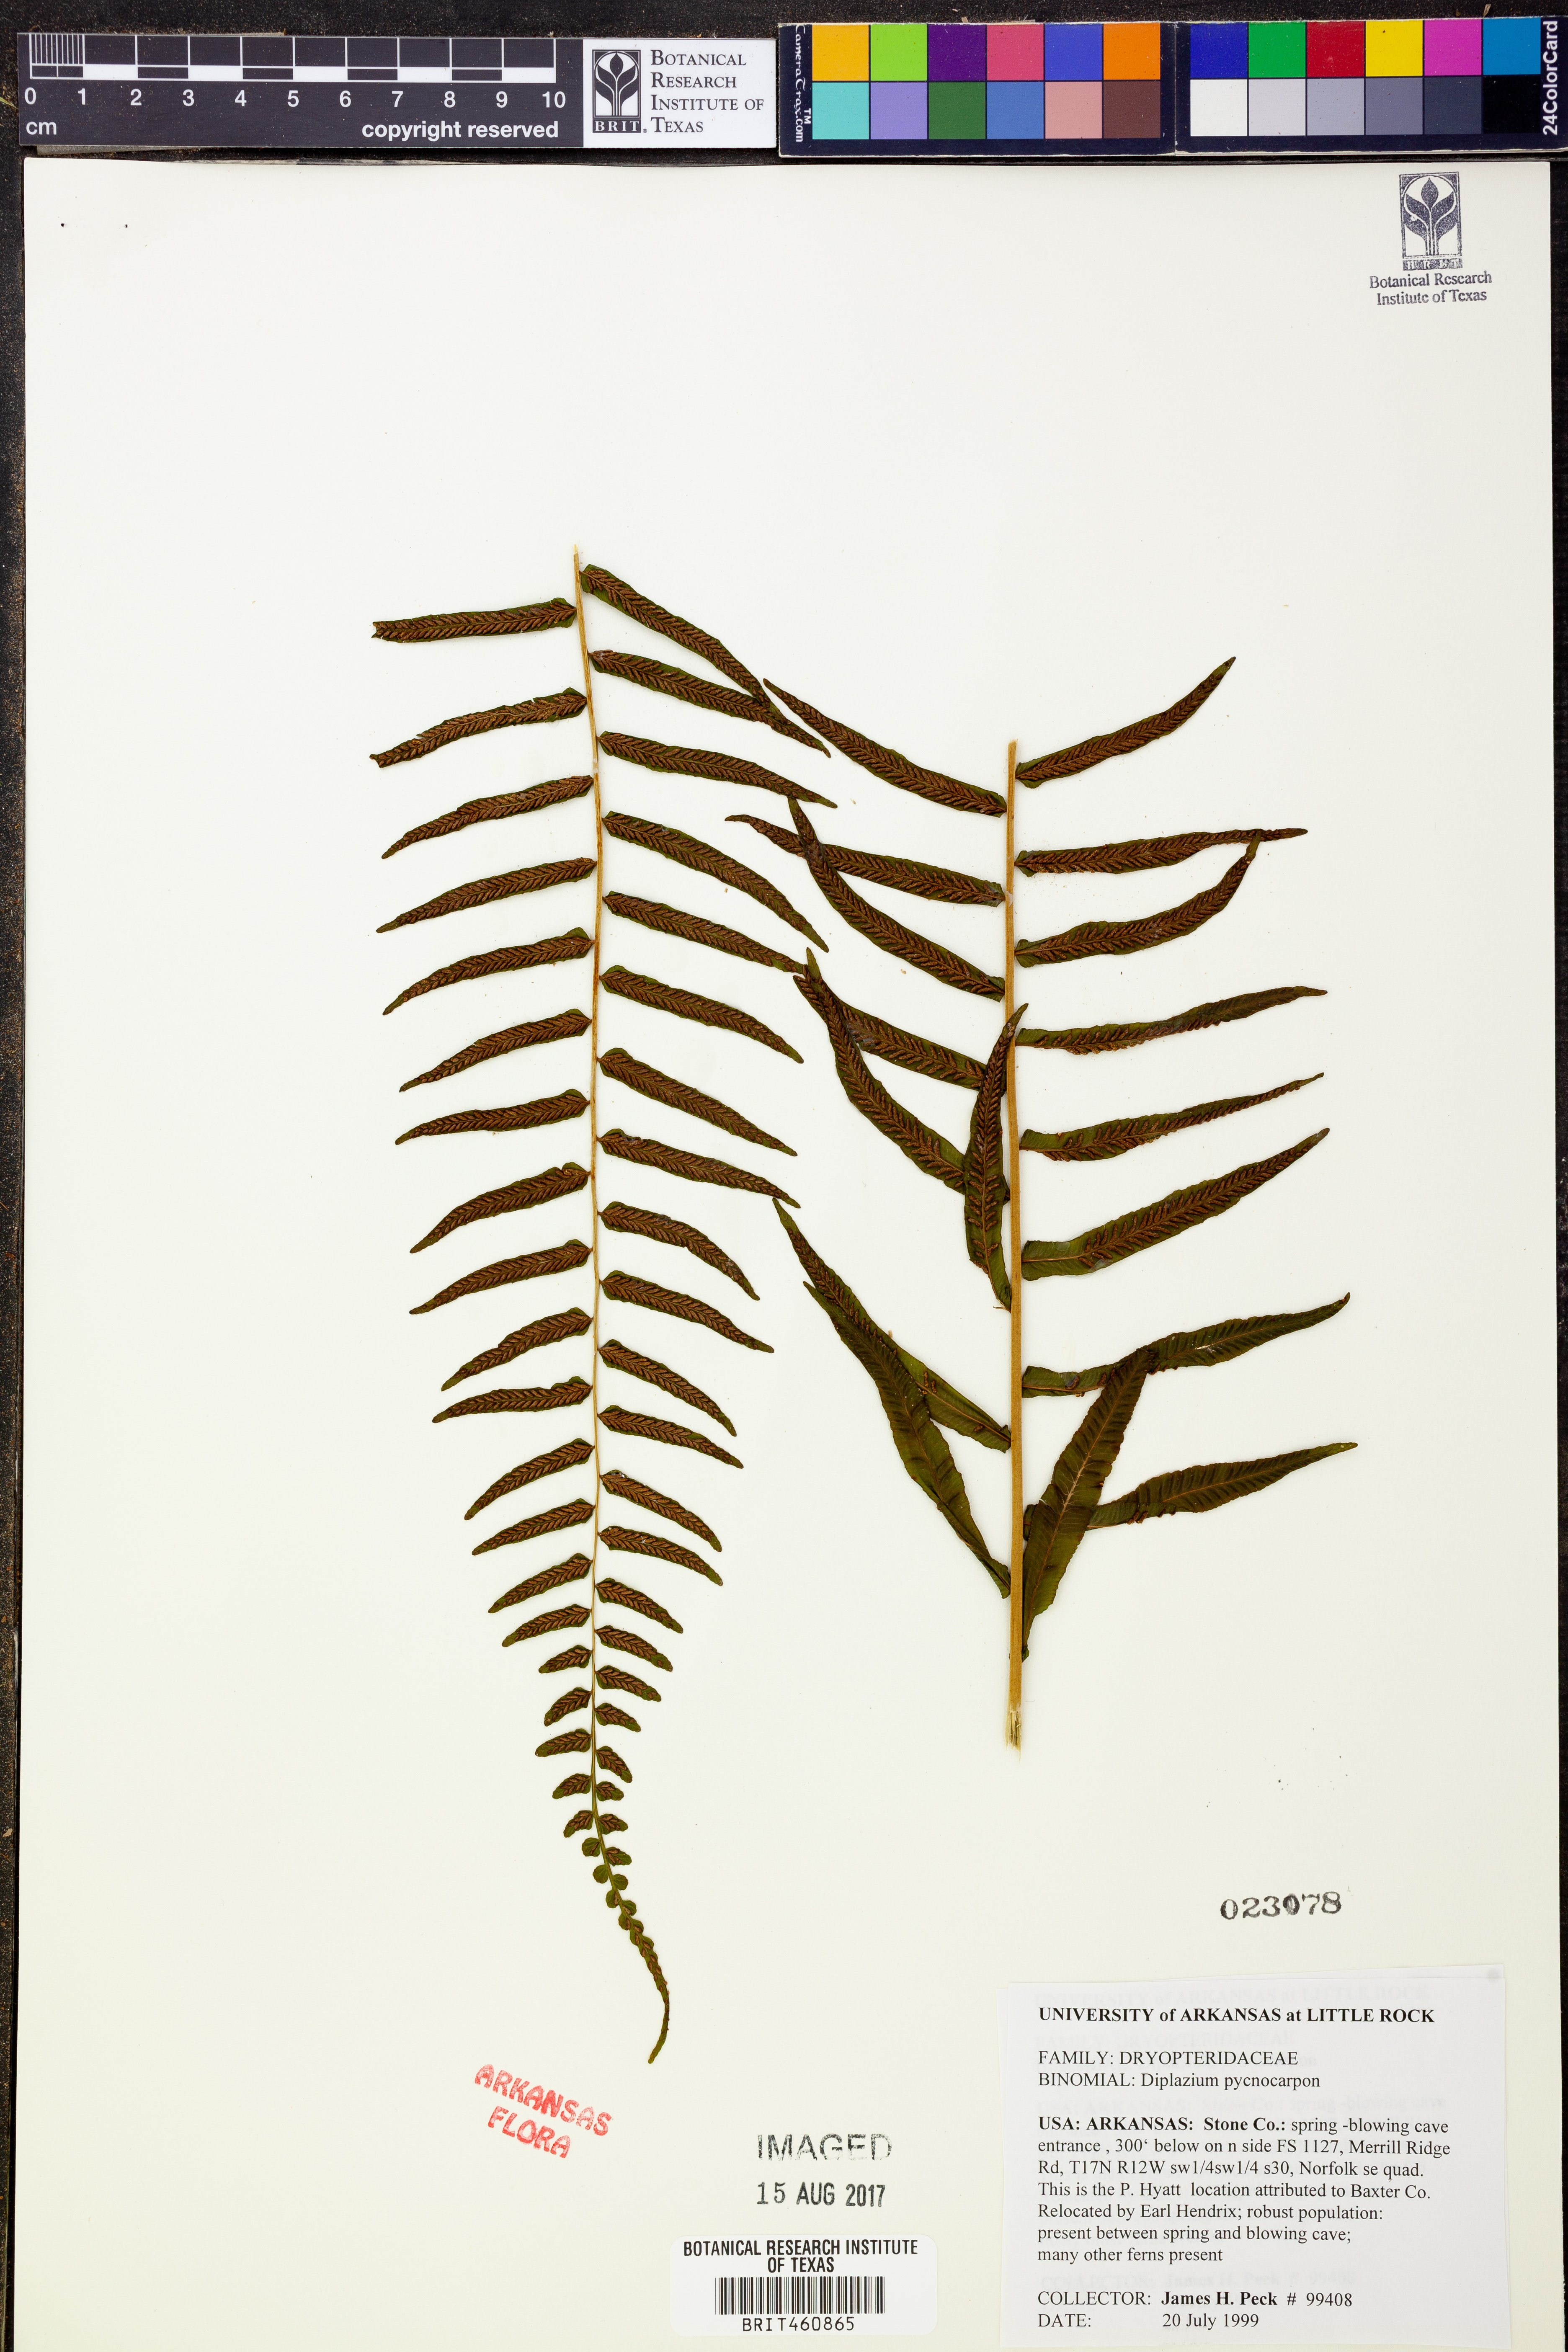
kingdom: Plantae
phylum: Tracheophyta
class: Polypodiopsida
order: Polypodiales
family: Diplaziopsidaceae
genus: Homalosorus
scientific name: Homalosorus pycnocarpos
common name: Glade fern
